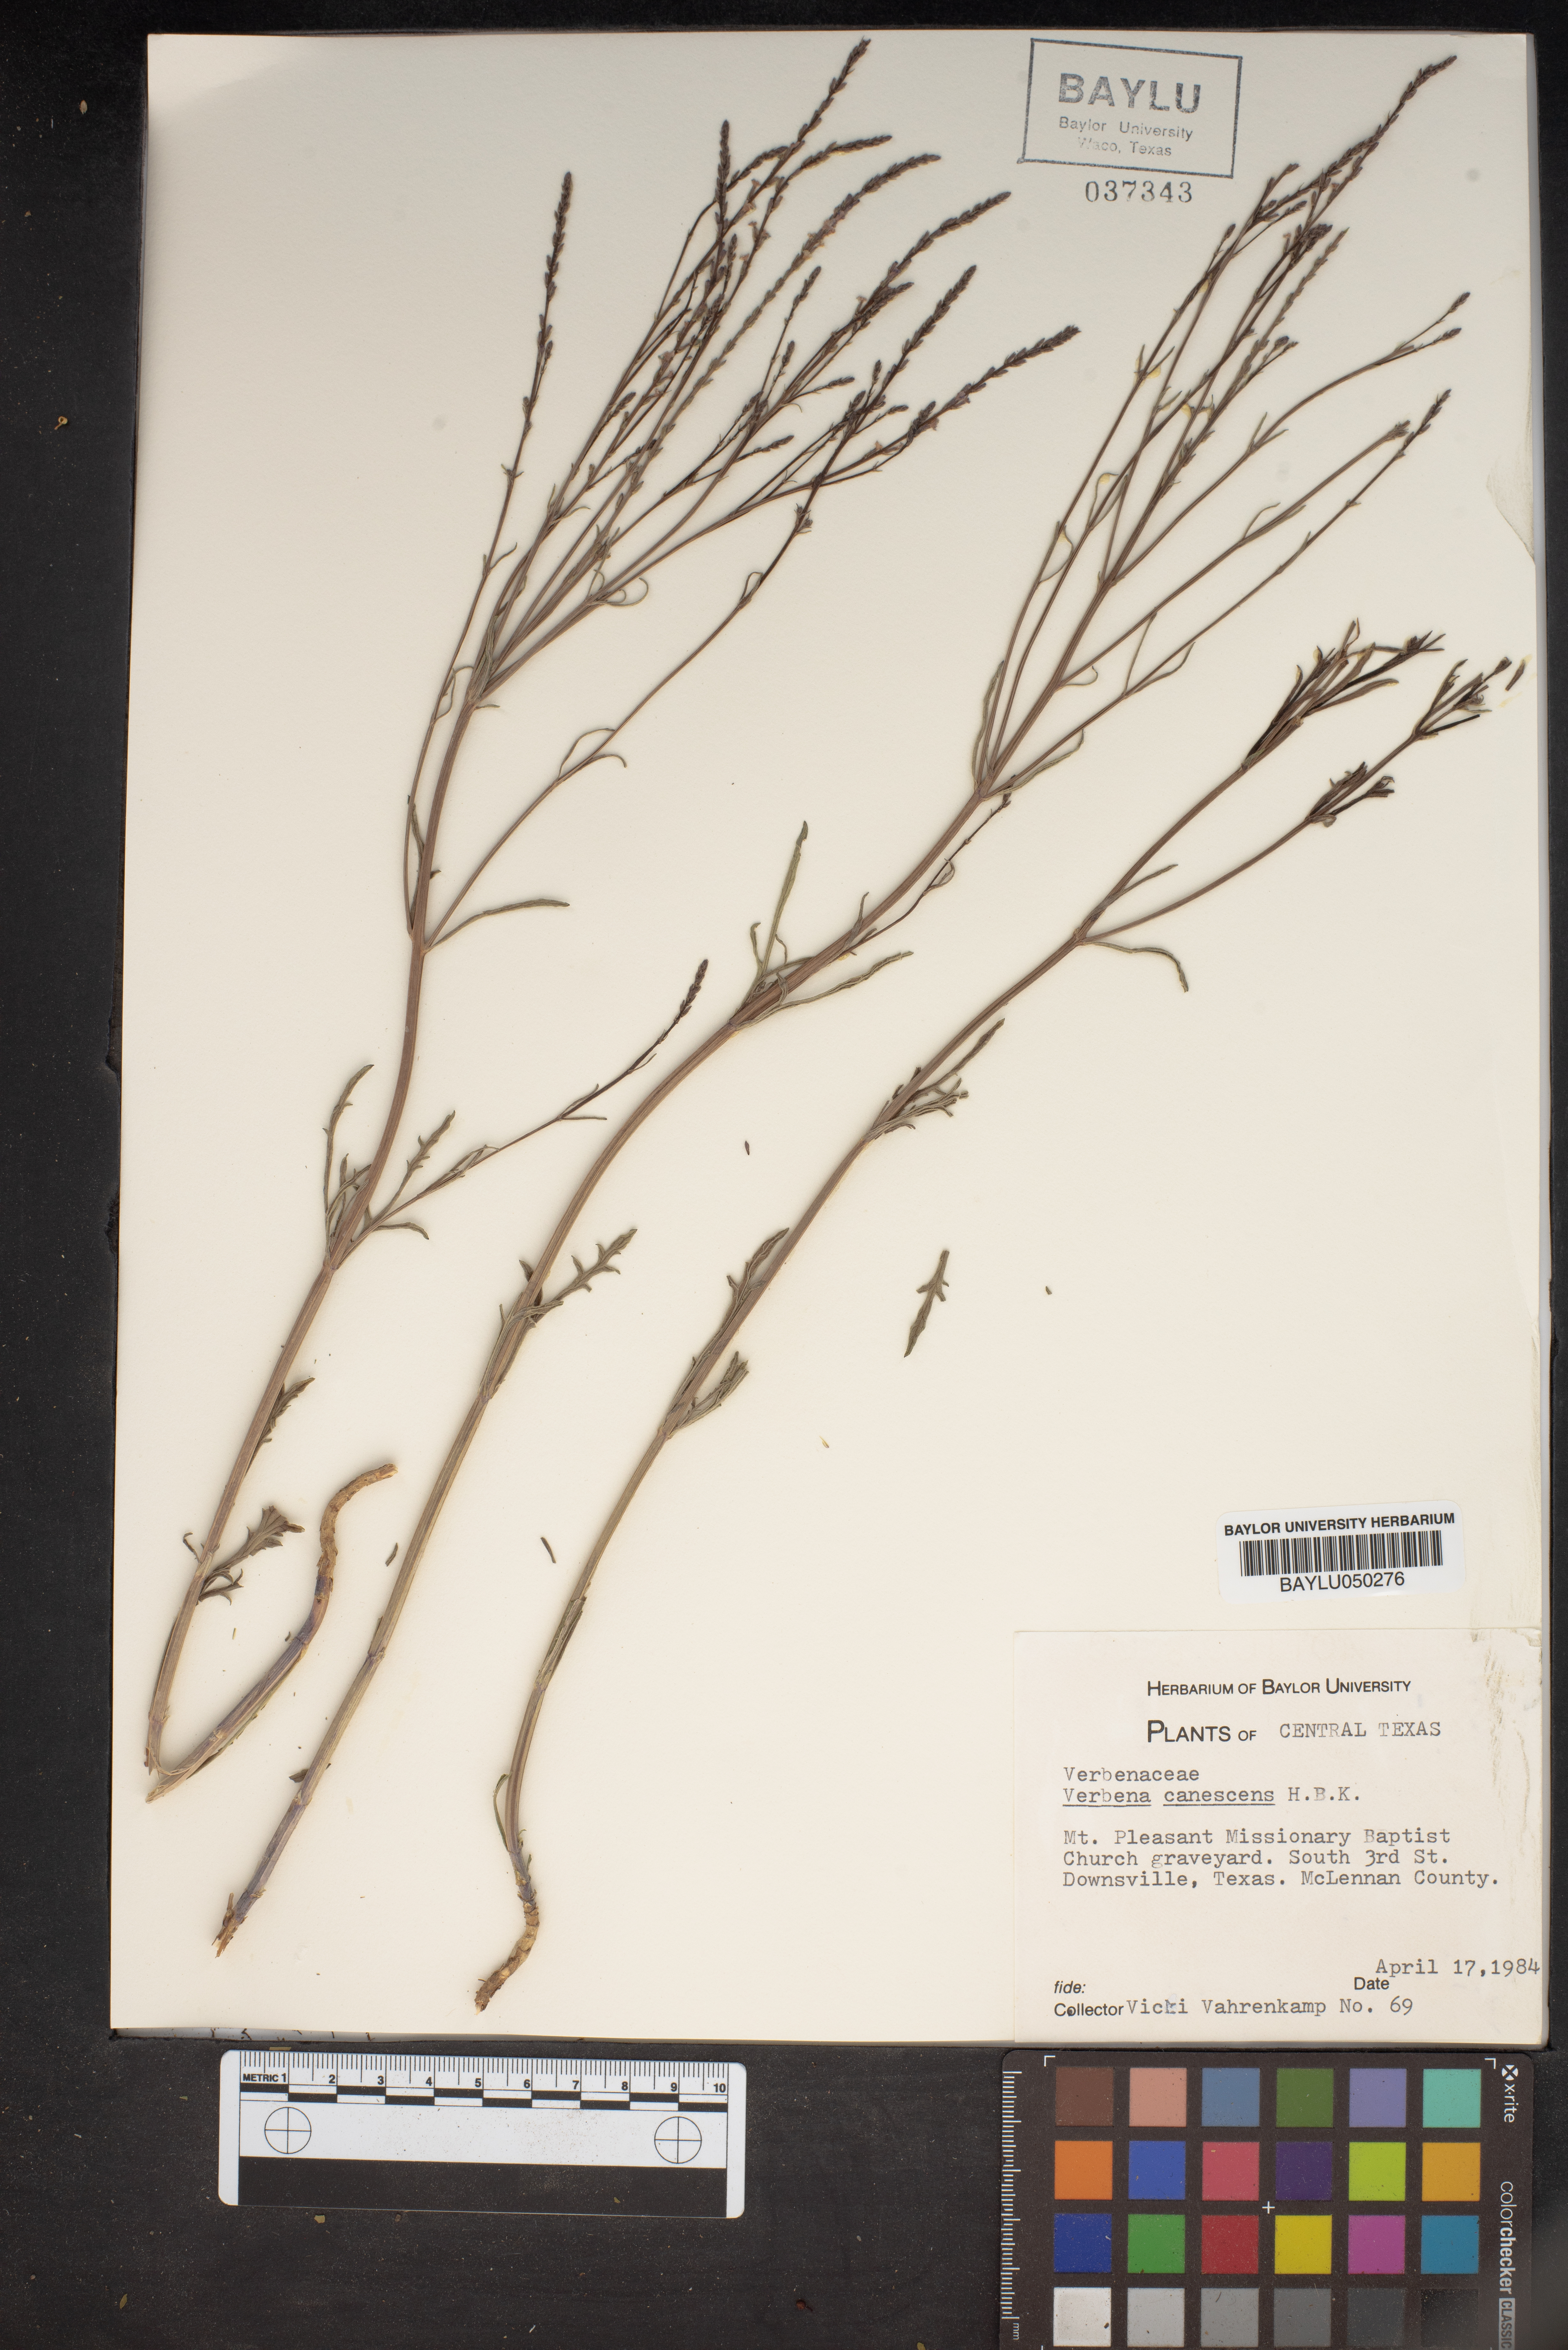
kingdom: Plantae
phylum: Tracheophyta
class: Magnoliopsida
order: Lamiales
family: Verbenaceae
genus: Verbena
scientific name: Verbena canescens
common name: Gray vervain
